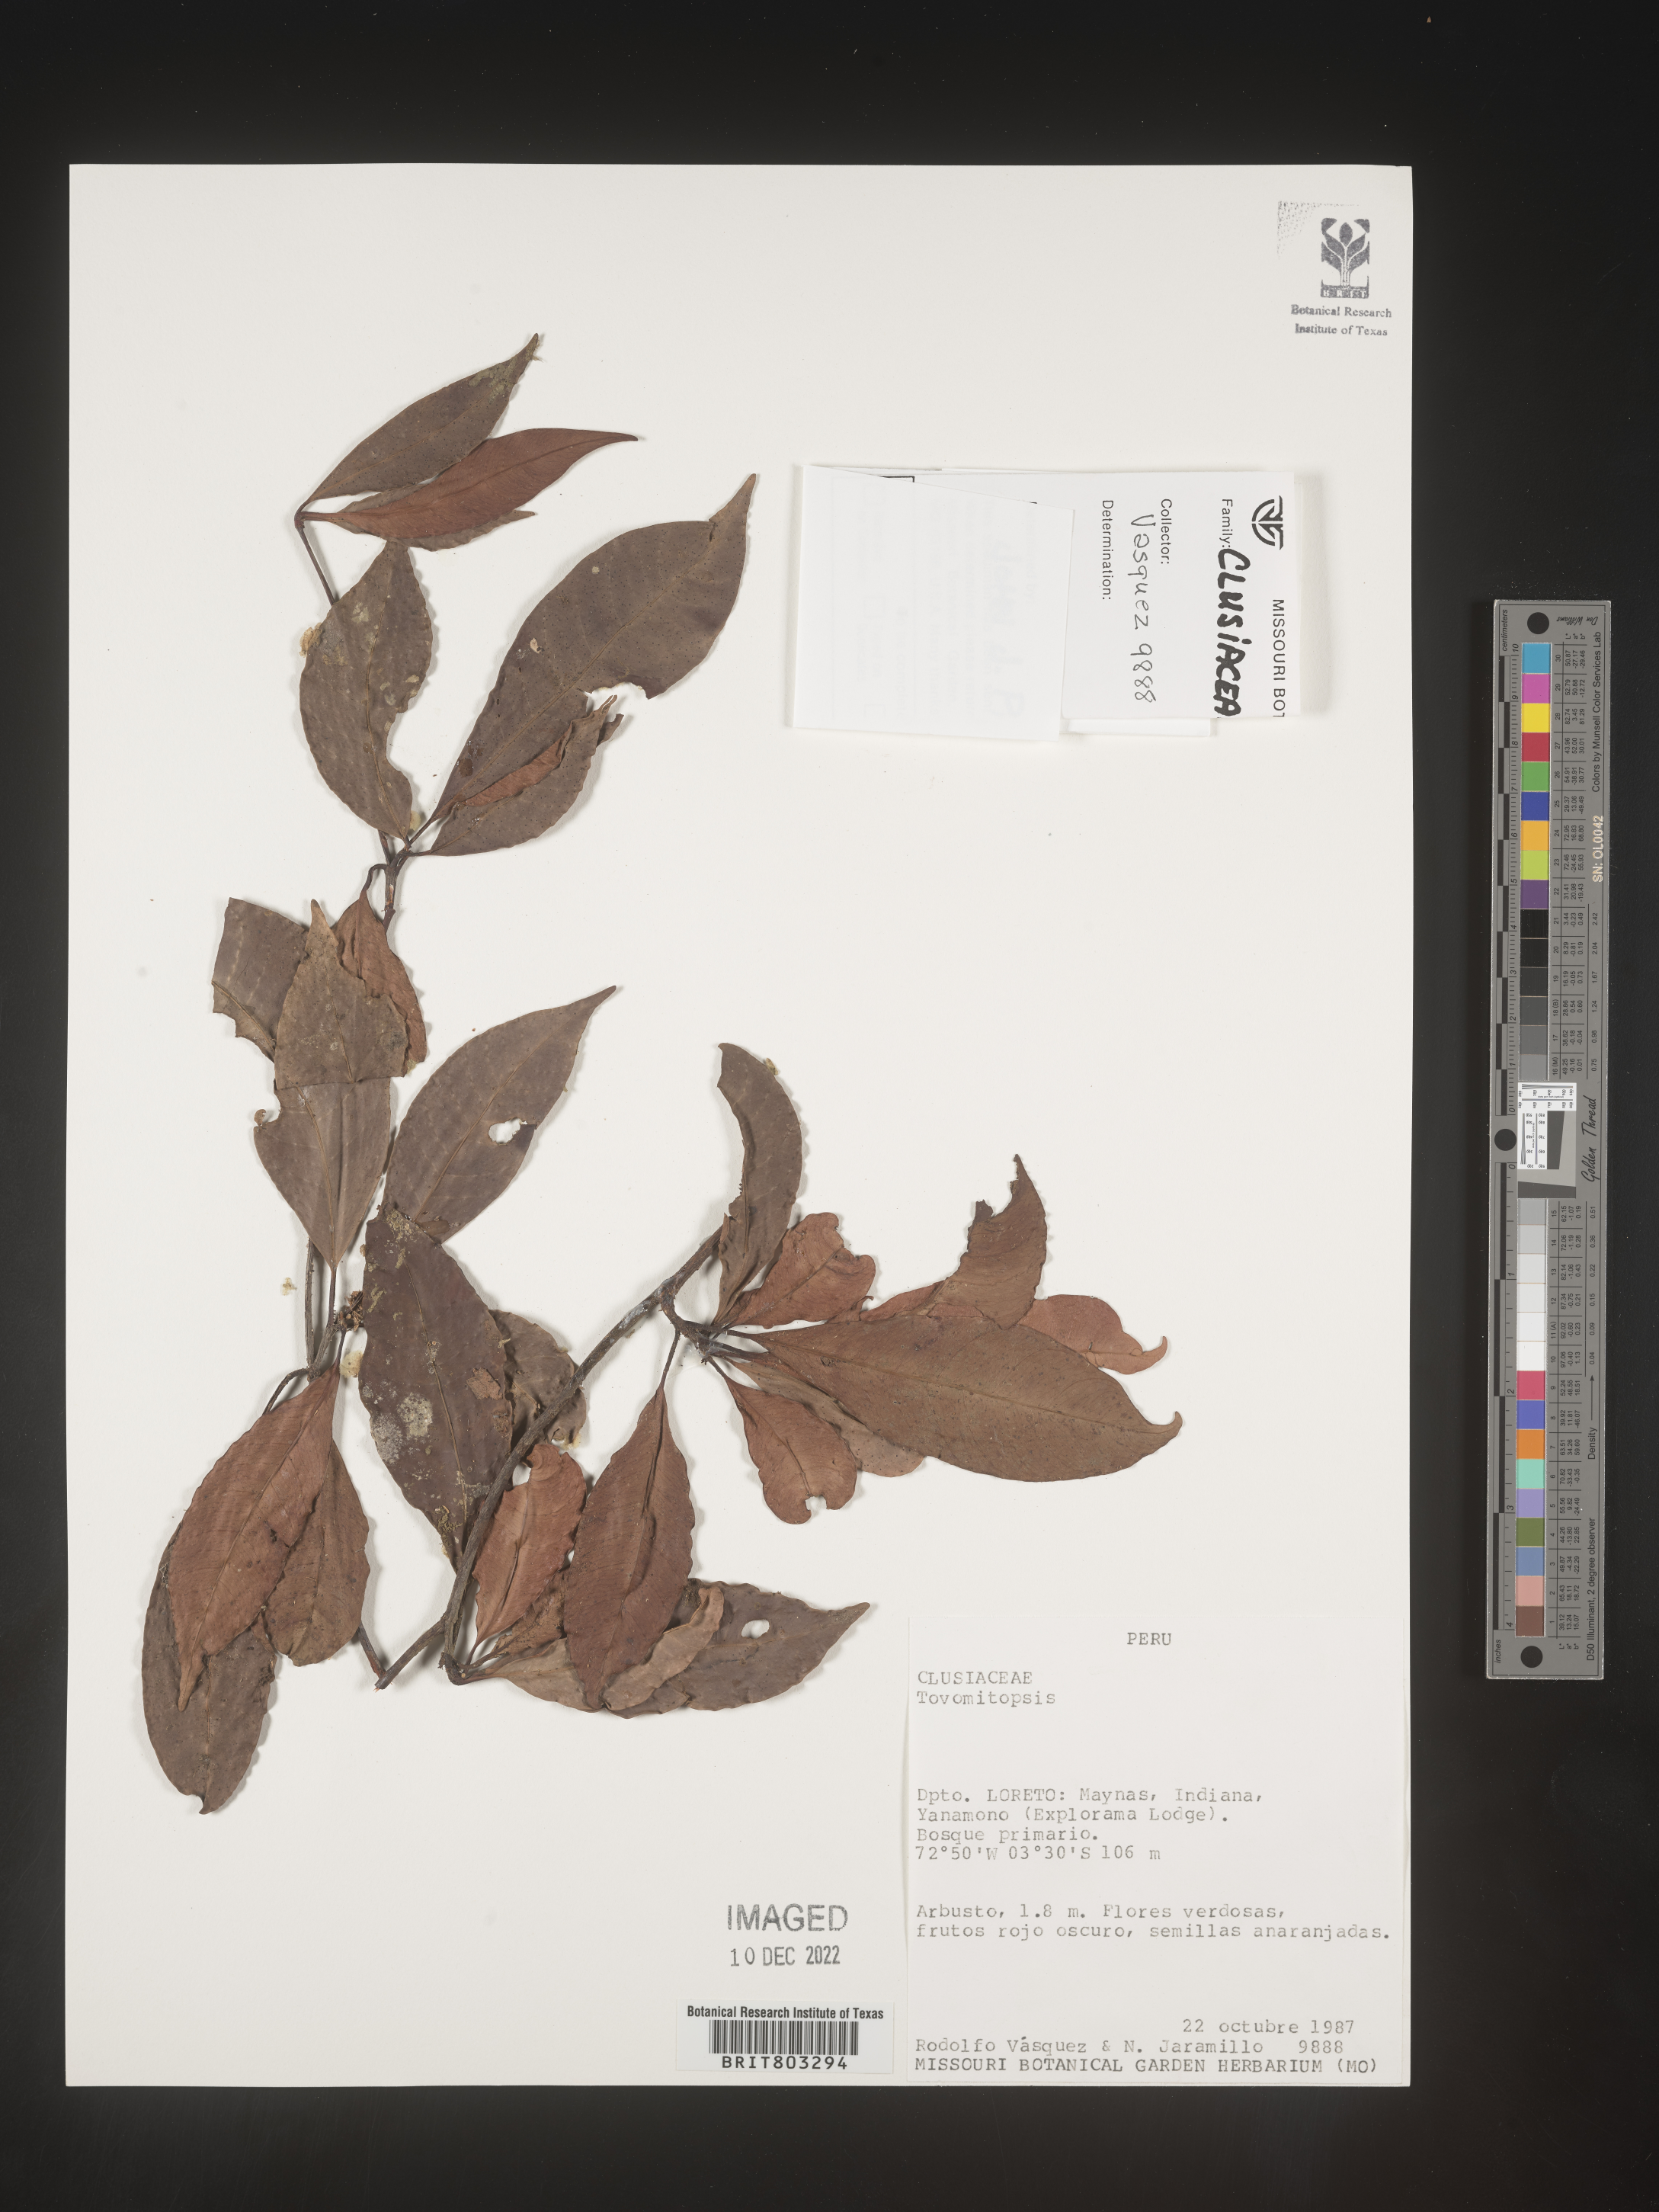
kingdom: Plantae
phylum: Tracheophyta
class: Magnoliopsida
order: Malpighiales
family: Clusiaceae
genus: Tovomita
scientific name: Tovomita
